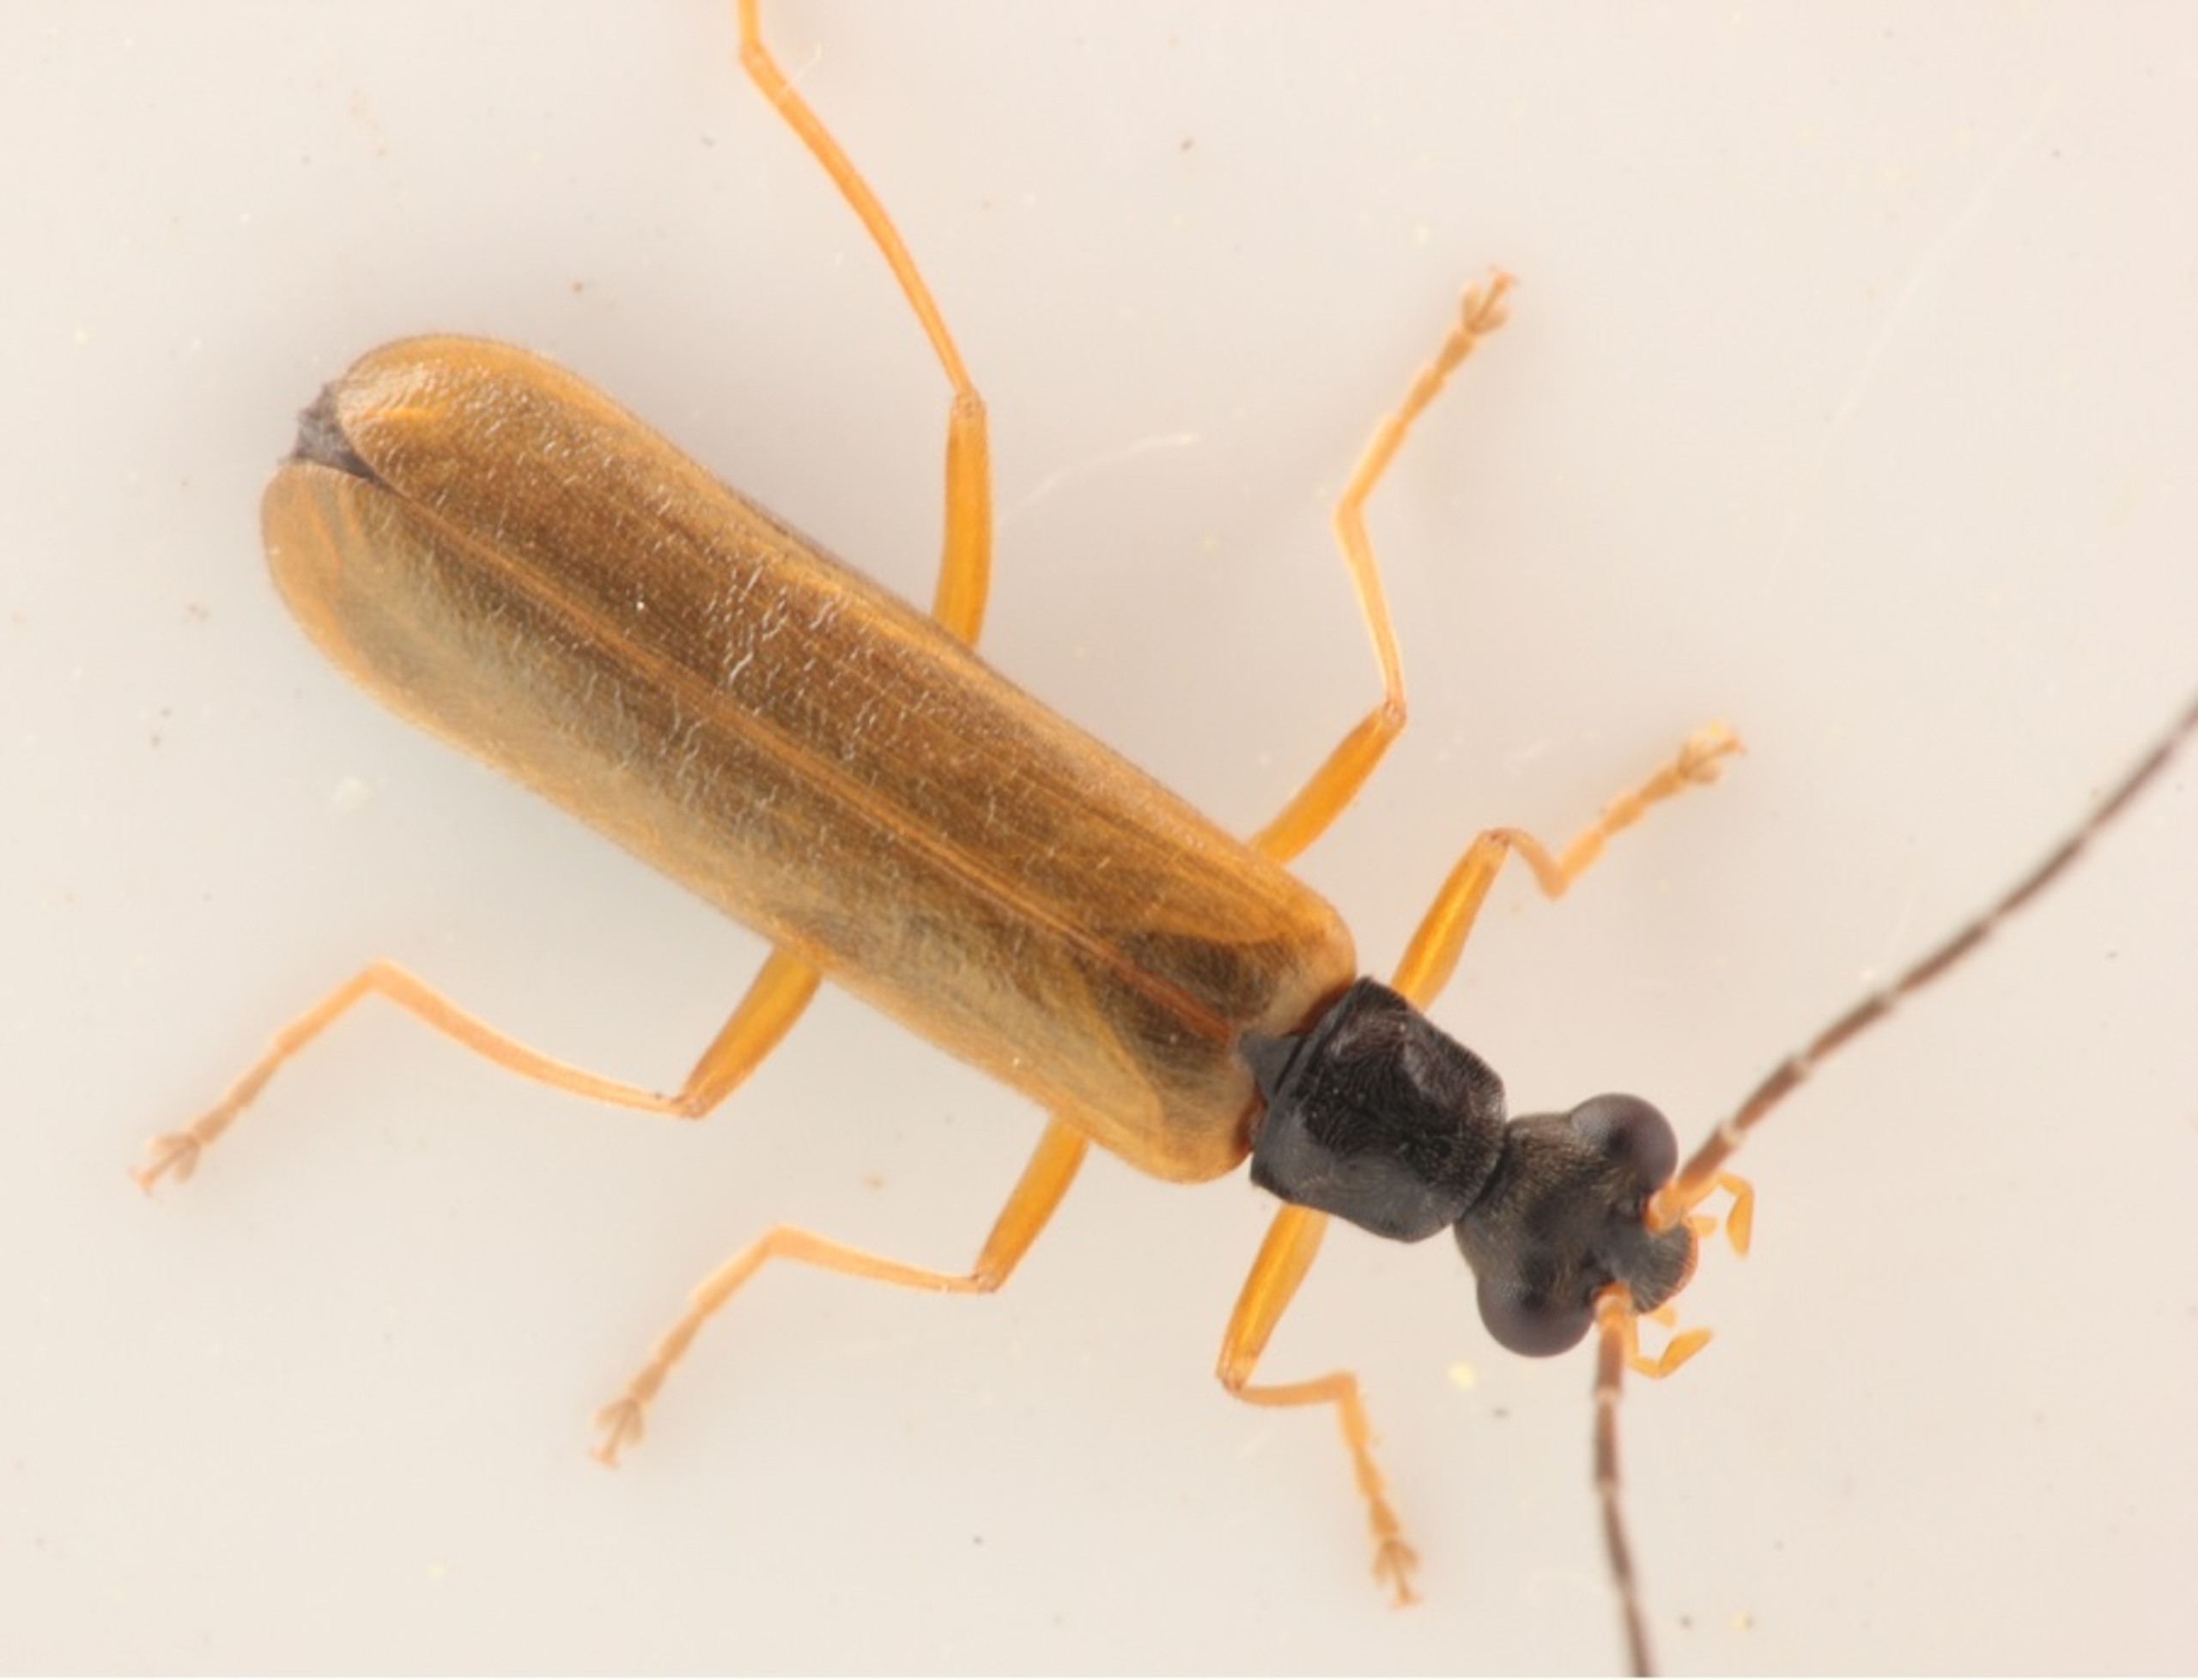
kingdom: Animalia
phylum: Arthropoda
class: Insecta
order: Coleoptera
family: Cantharidae
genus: Rhagonycha
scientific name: Rhagonycha lignosa
